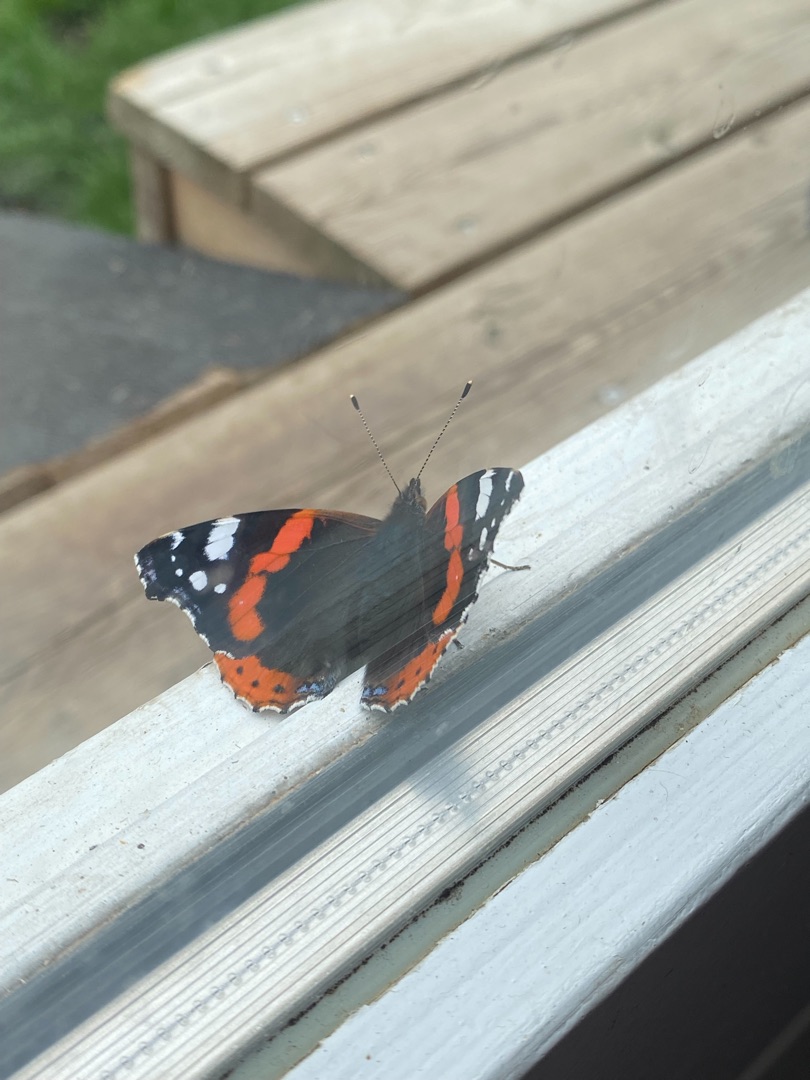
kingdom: Animalia
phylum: Arthropoda
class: Insecta
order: Lepidoptera
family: Nymphalidae
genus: Vanessa
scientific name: Vanessa atalanta
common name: Admiral
